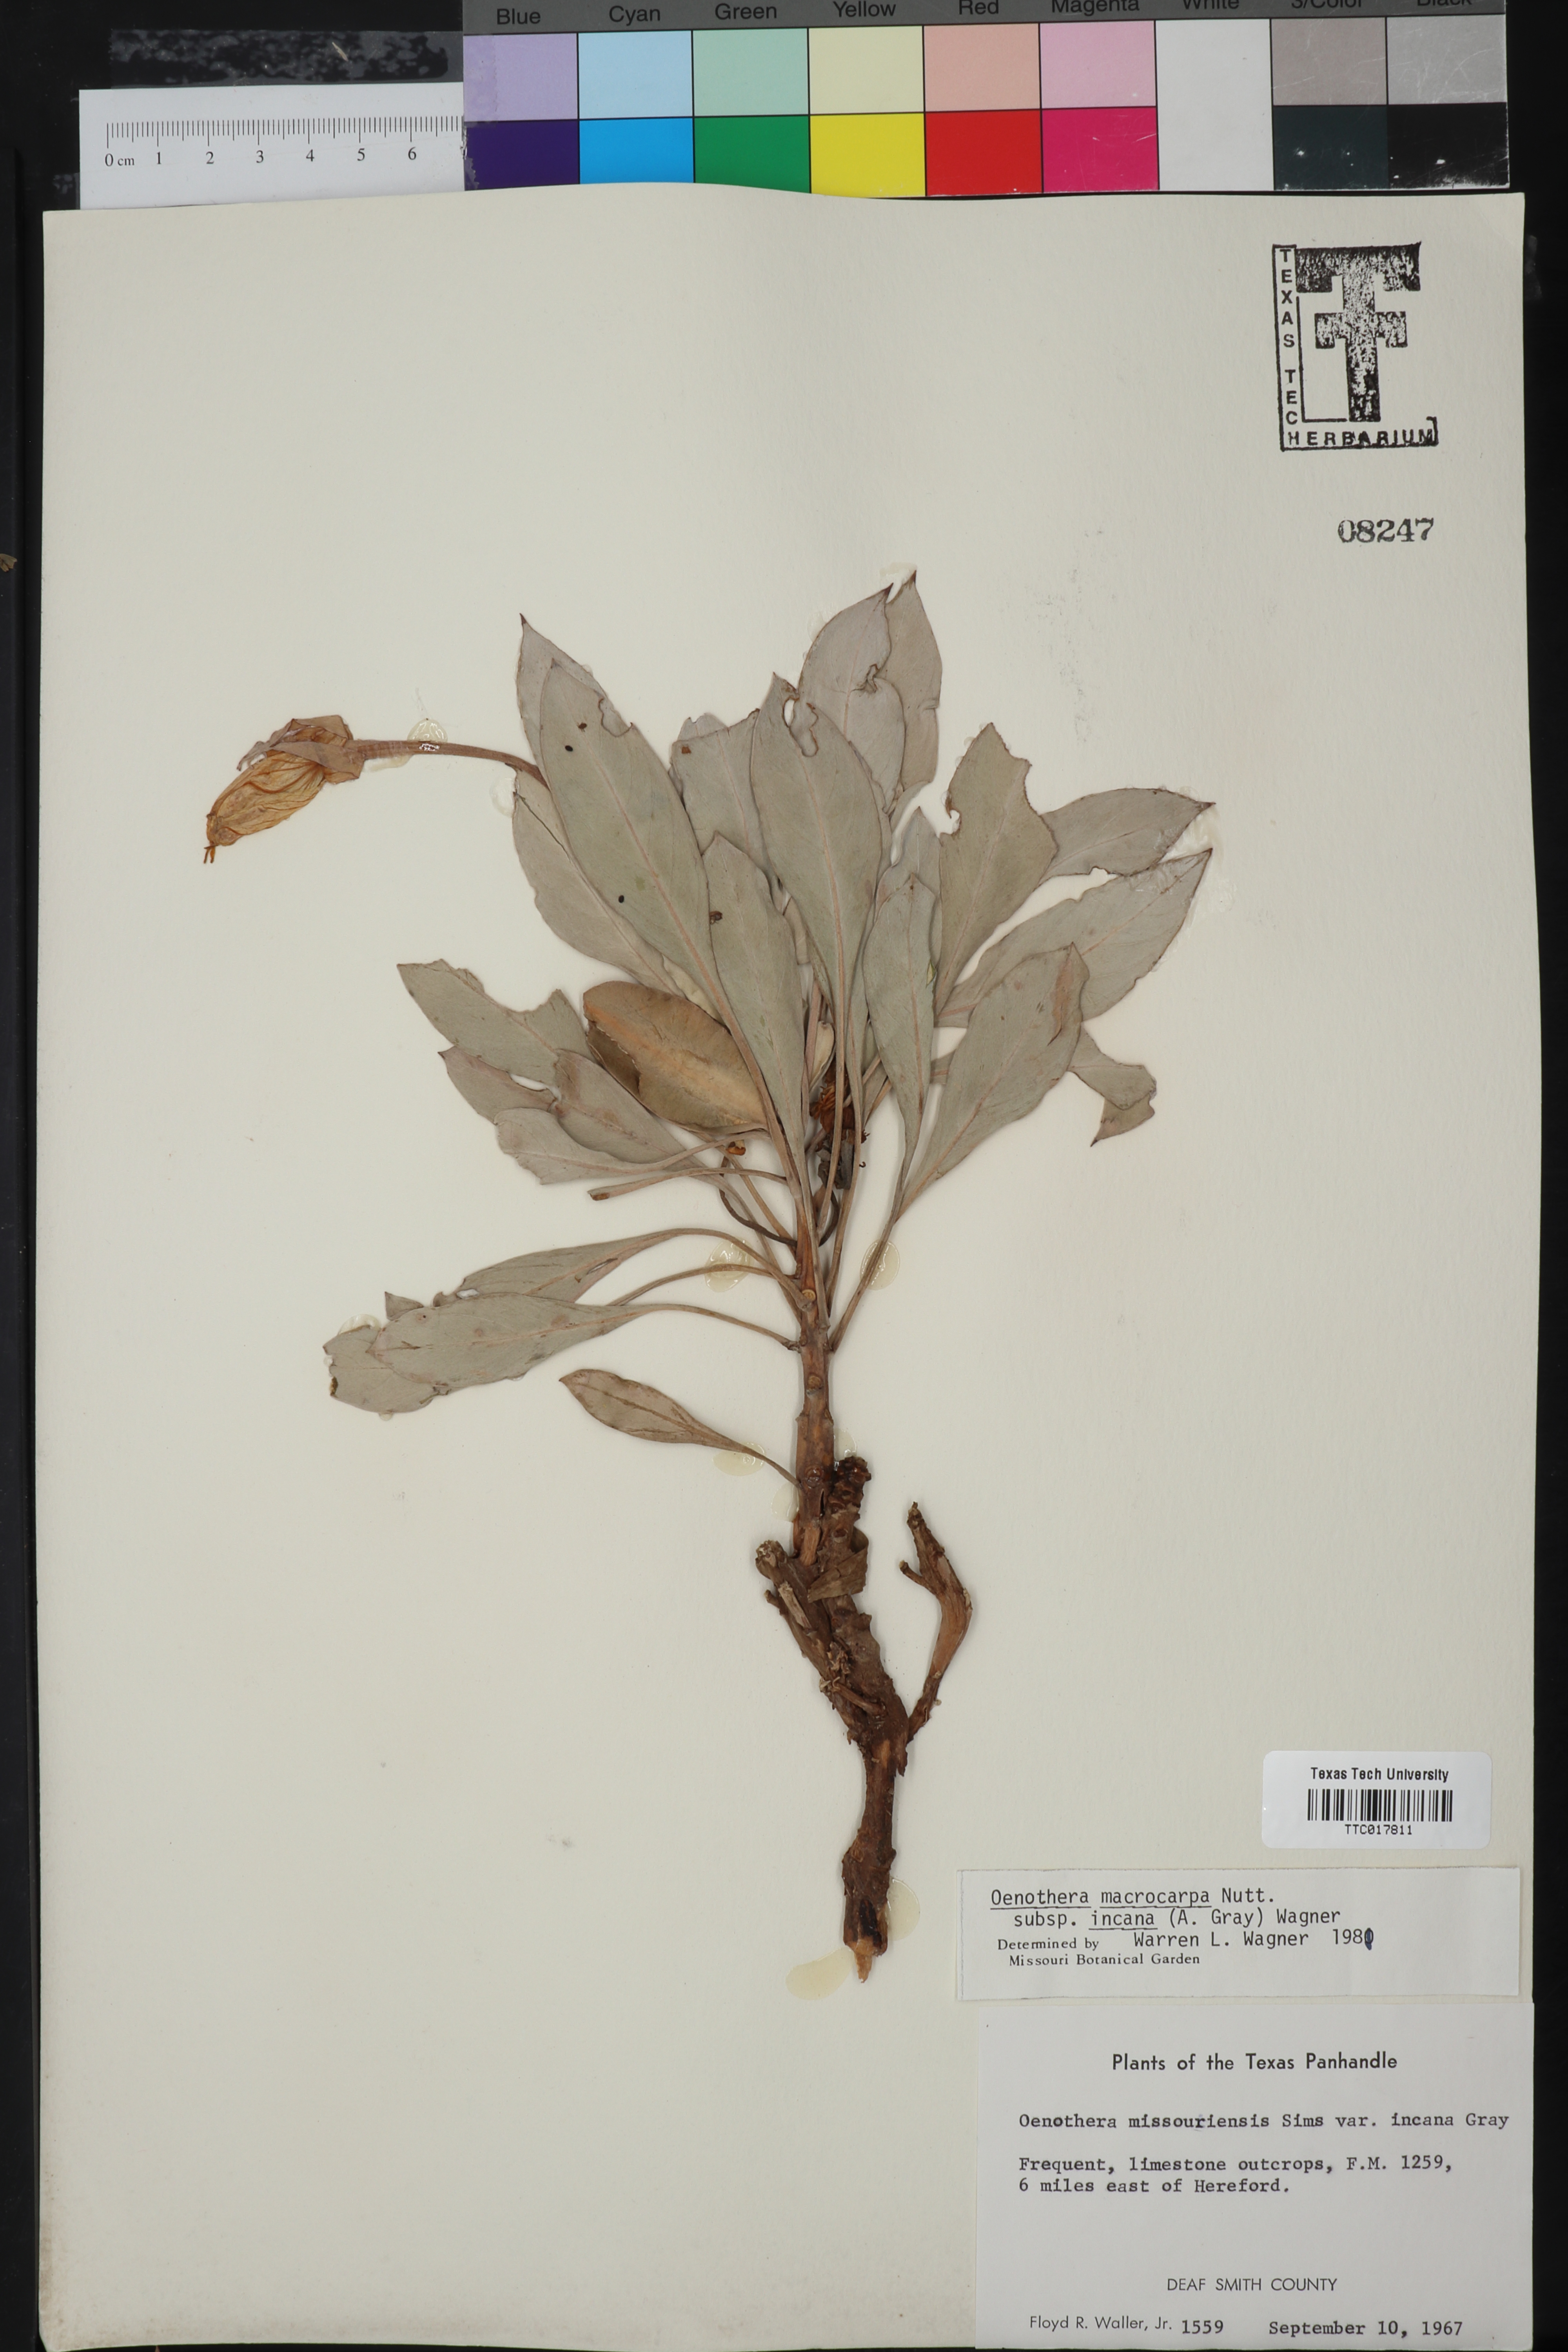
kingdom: Plantae
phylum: Tracheophyta
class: Magnoliopsida
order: Myrtales
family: Onagraceae
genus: Oenothera
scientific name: Oenothera macrocarpa
